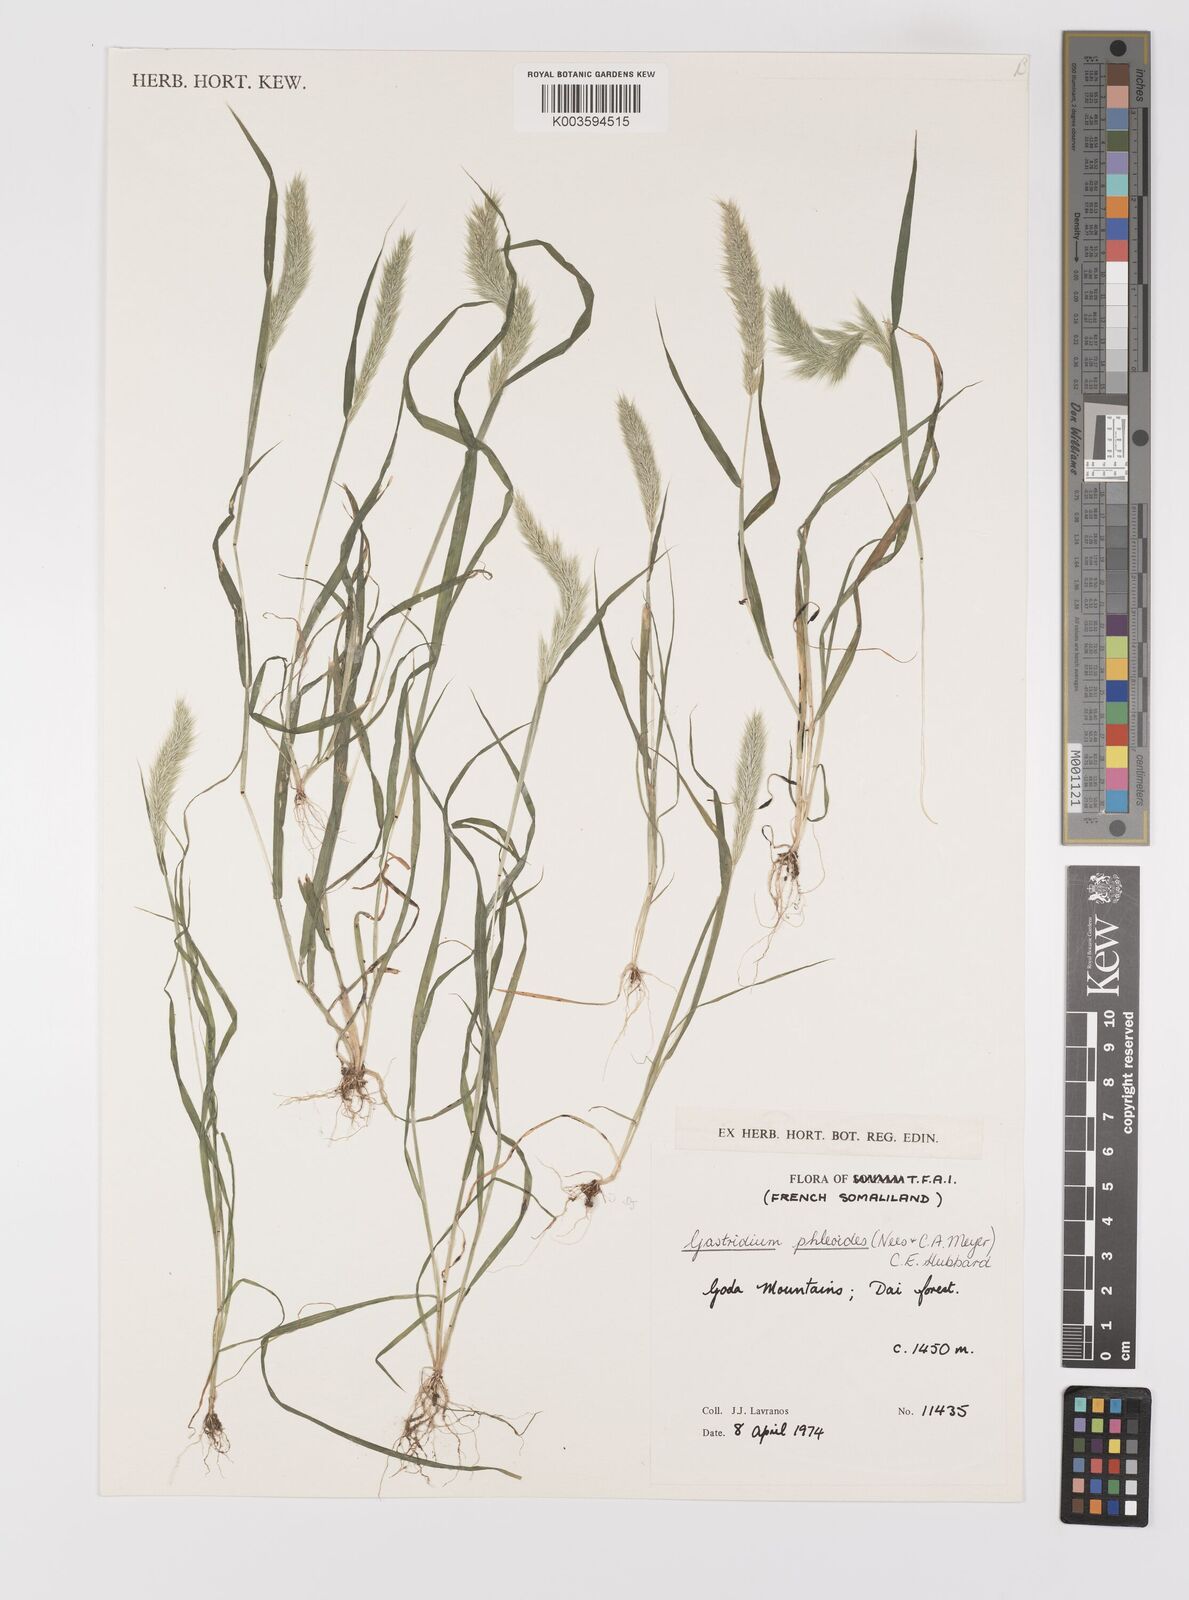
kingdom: Plantae
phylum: Tracheophyta
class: Liliopsida
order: Poales
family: Poaceae
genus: Gastridium
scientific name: Gastridium phleoides
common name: Nit grass
